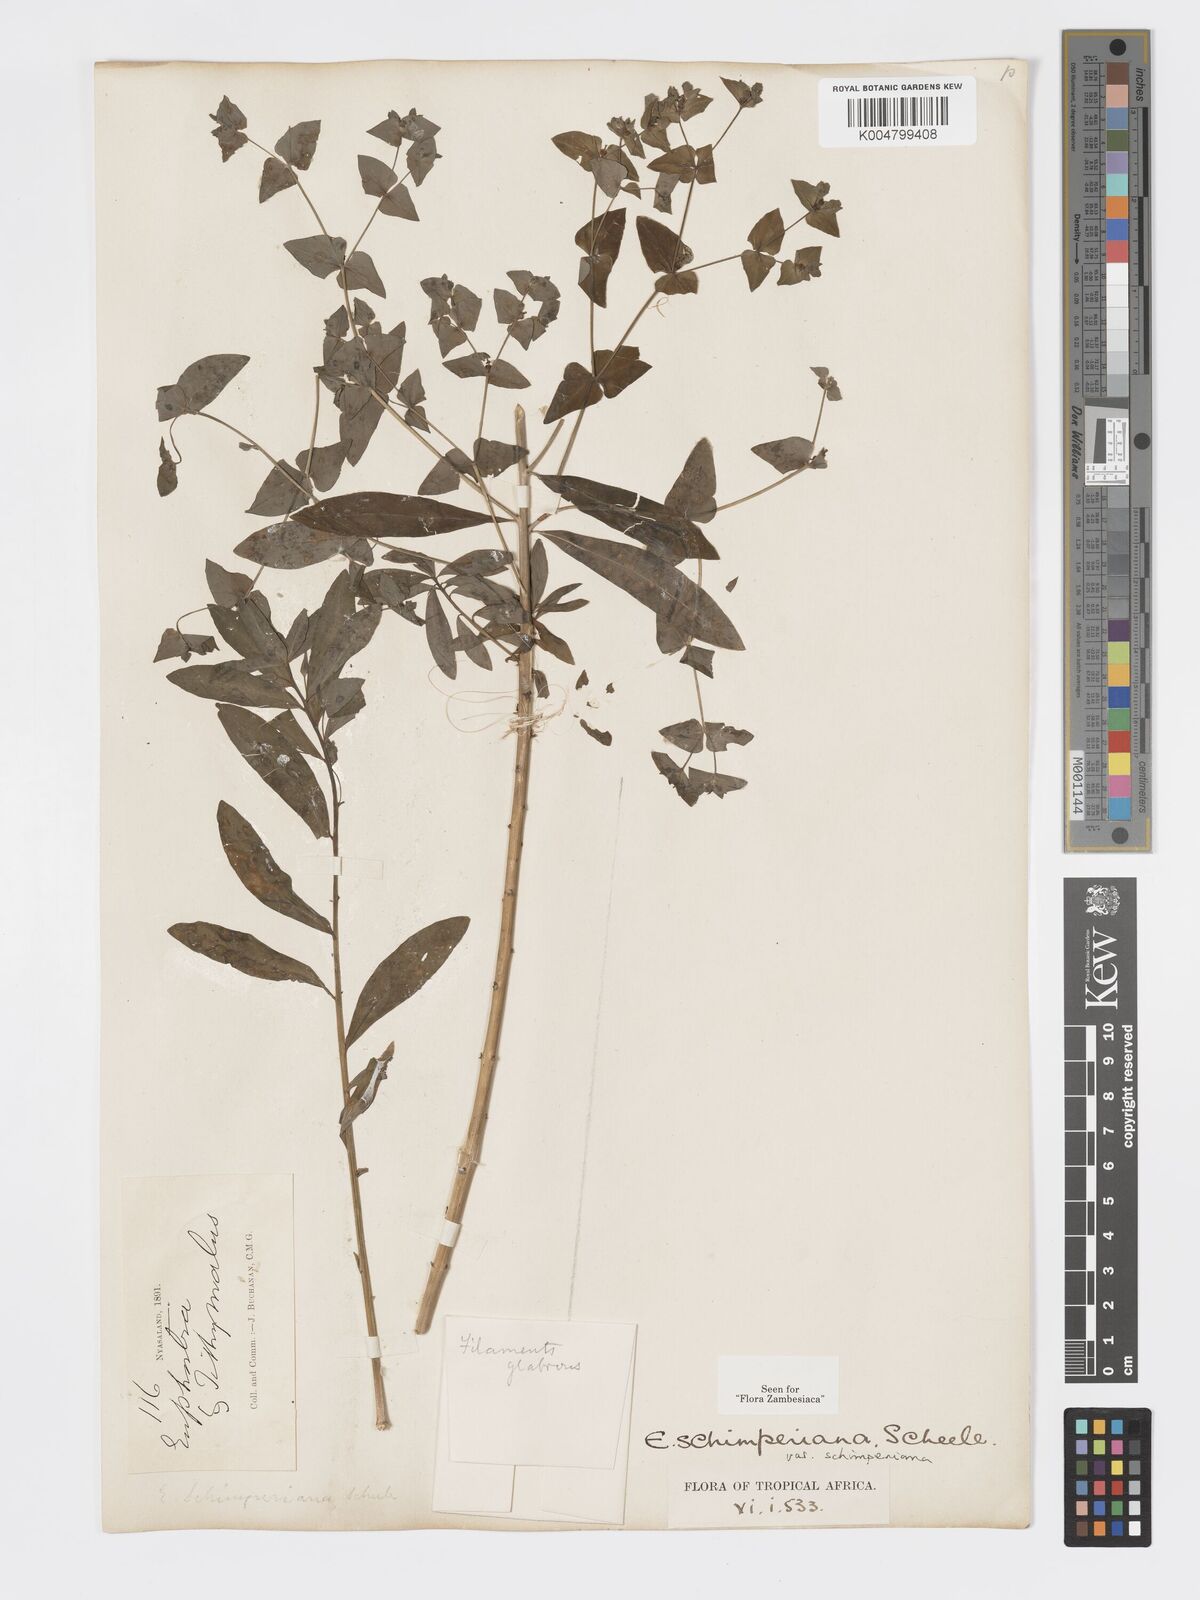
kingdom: Plantae
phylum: Tracheophyta
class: Magnoliopsida
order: Malpighiales
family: Euphorbiaceae
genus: Euphorbia
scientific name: Euphorbia schimperiana
